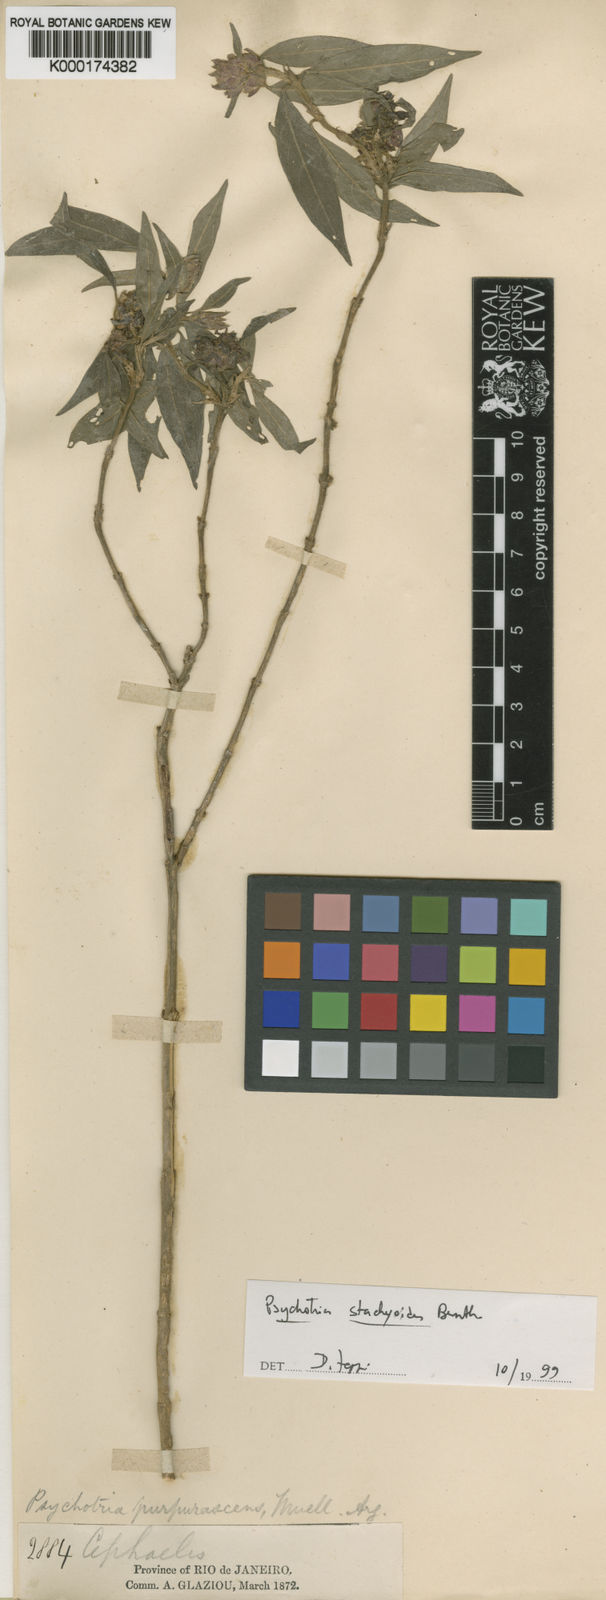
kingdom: Plantae
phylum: Tracheophyta
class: Magnoliopsida
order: Gentianales
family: Rubiaceae
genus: Psychotria
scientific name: Psychotria stachyoides
